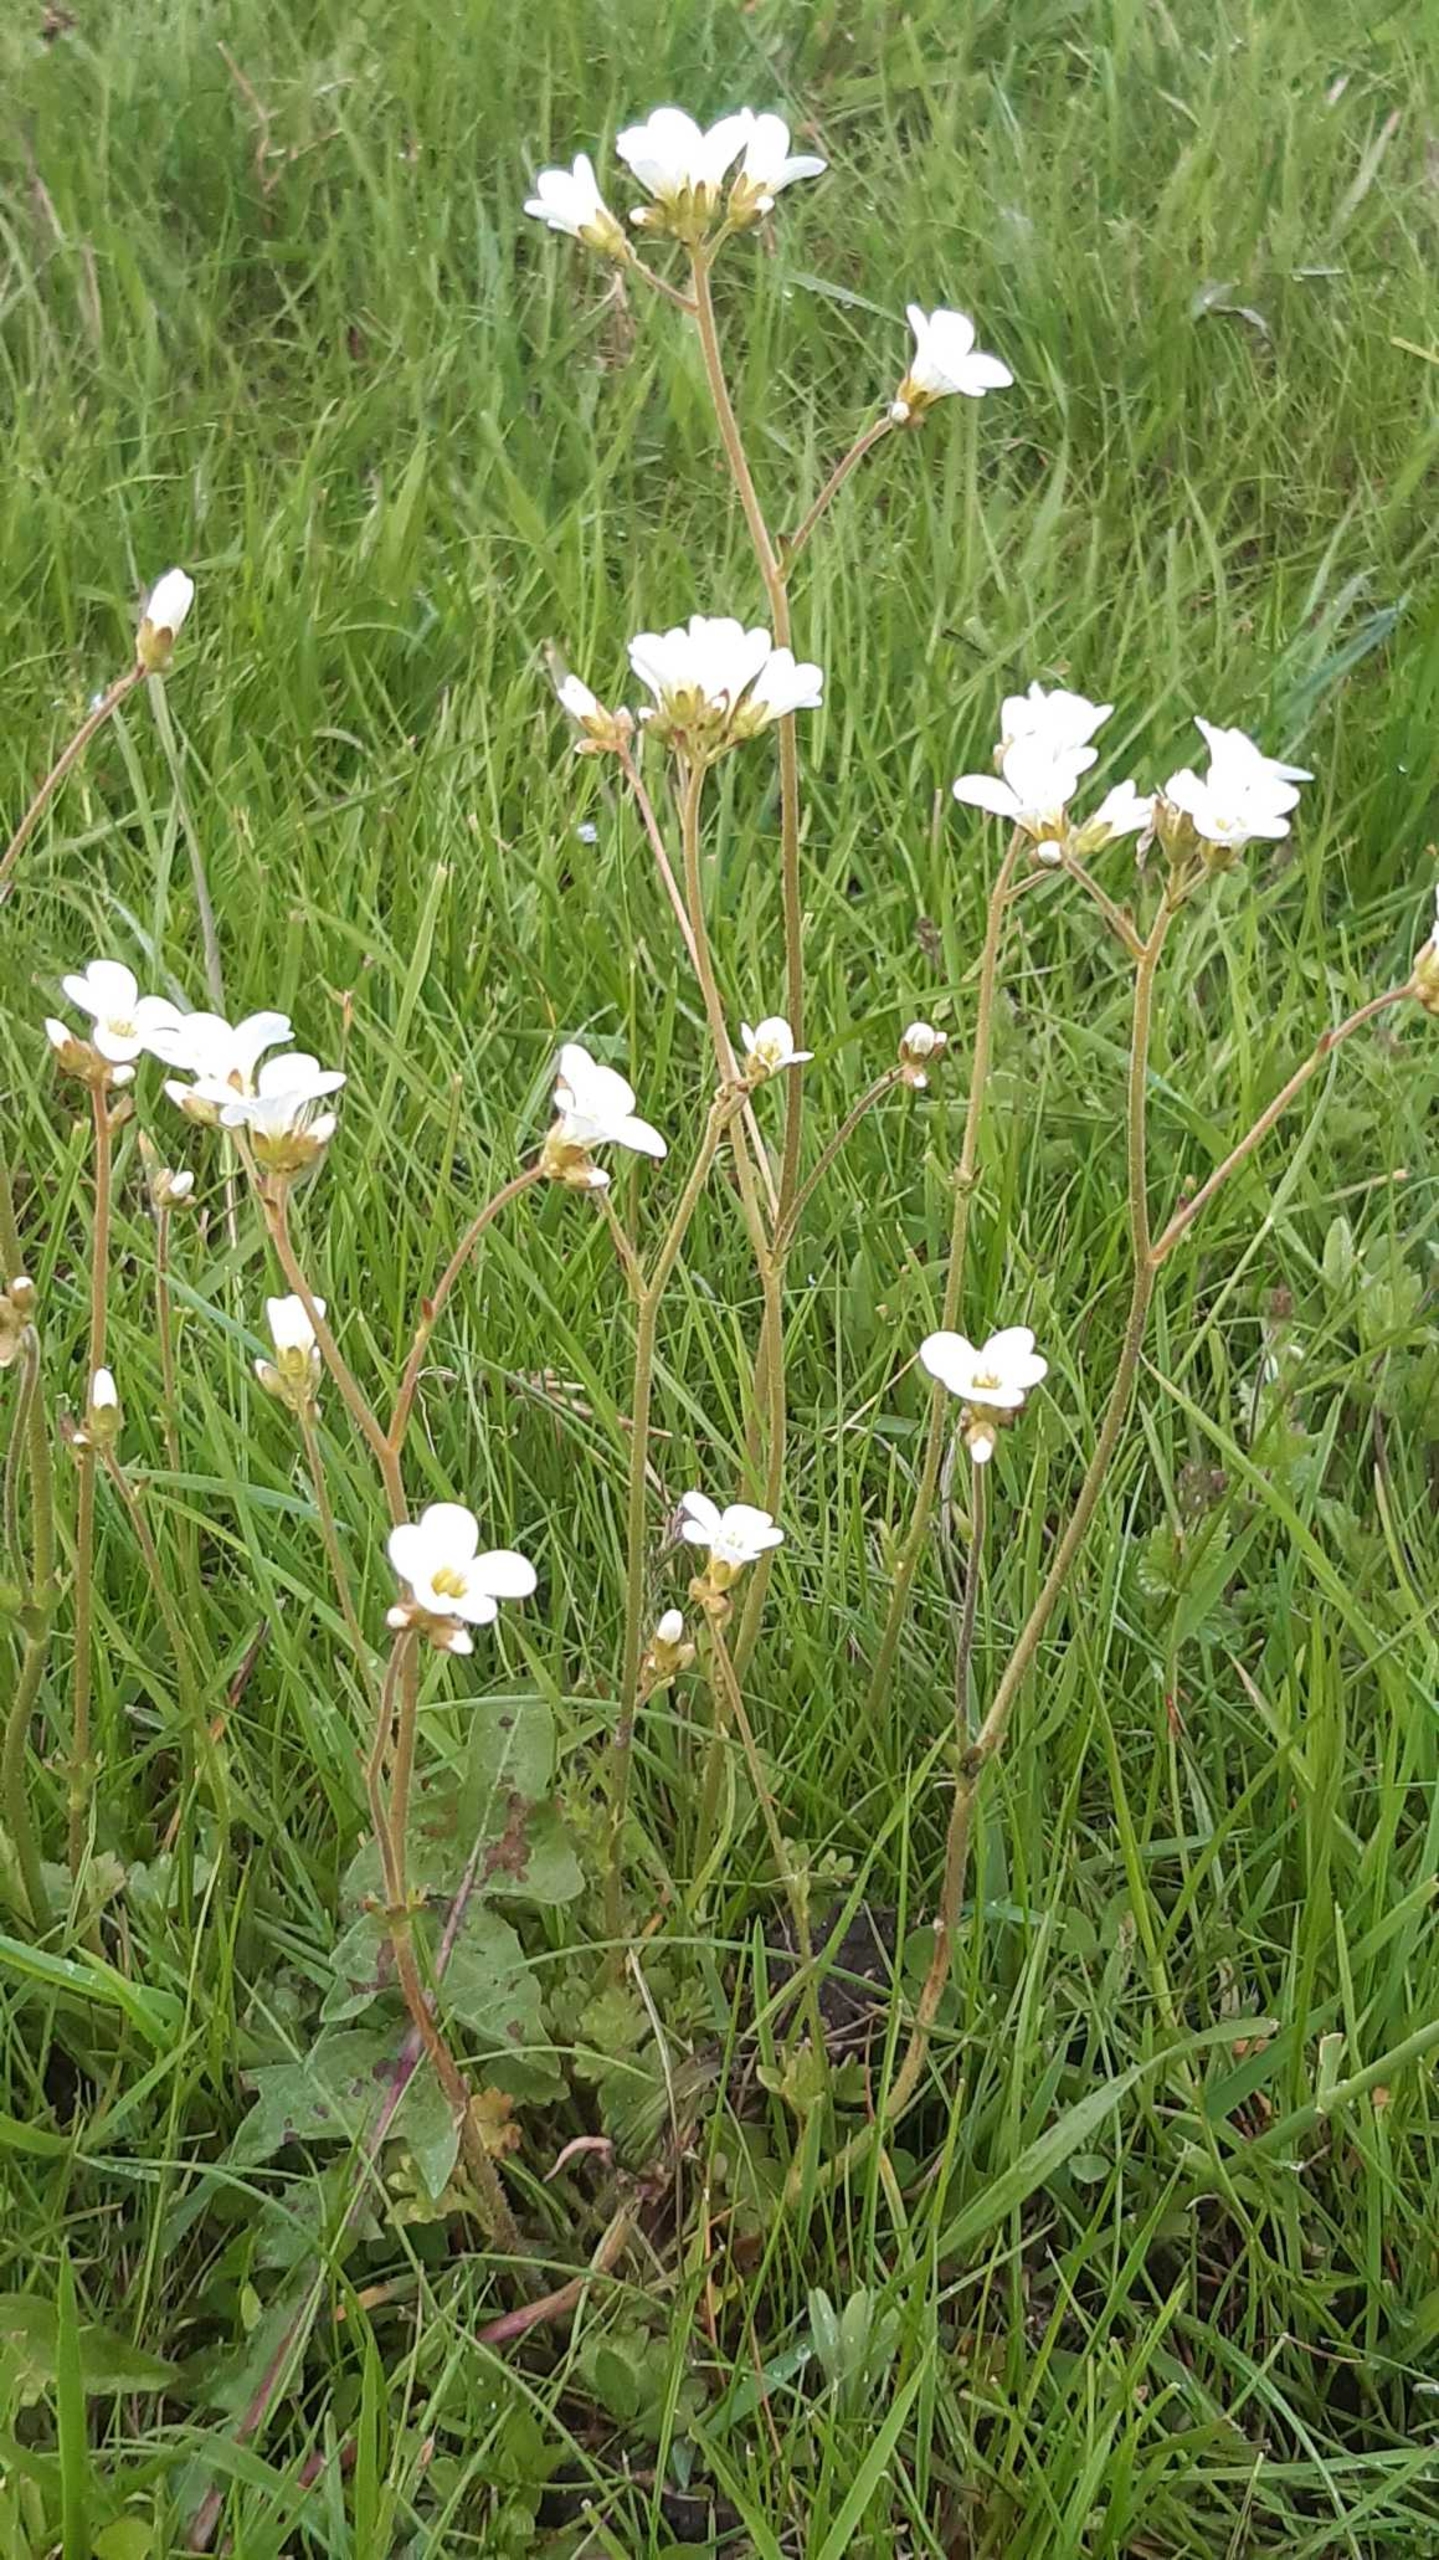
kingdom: Plantae
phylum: Tracheophyta
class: Magnoliopsida
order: Saxifragales
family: Saxifragaceae
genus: Saxifraga
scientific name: Saxifraga granulata
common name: Kornet stenbræk
